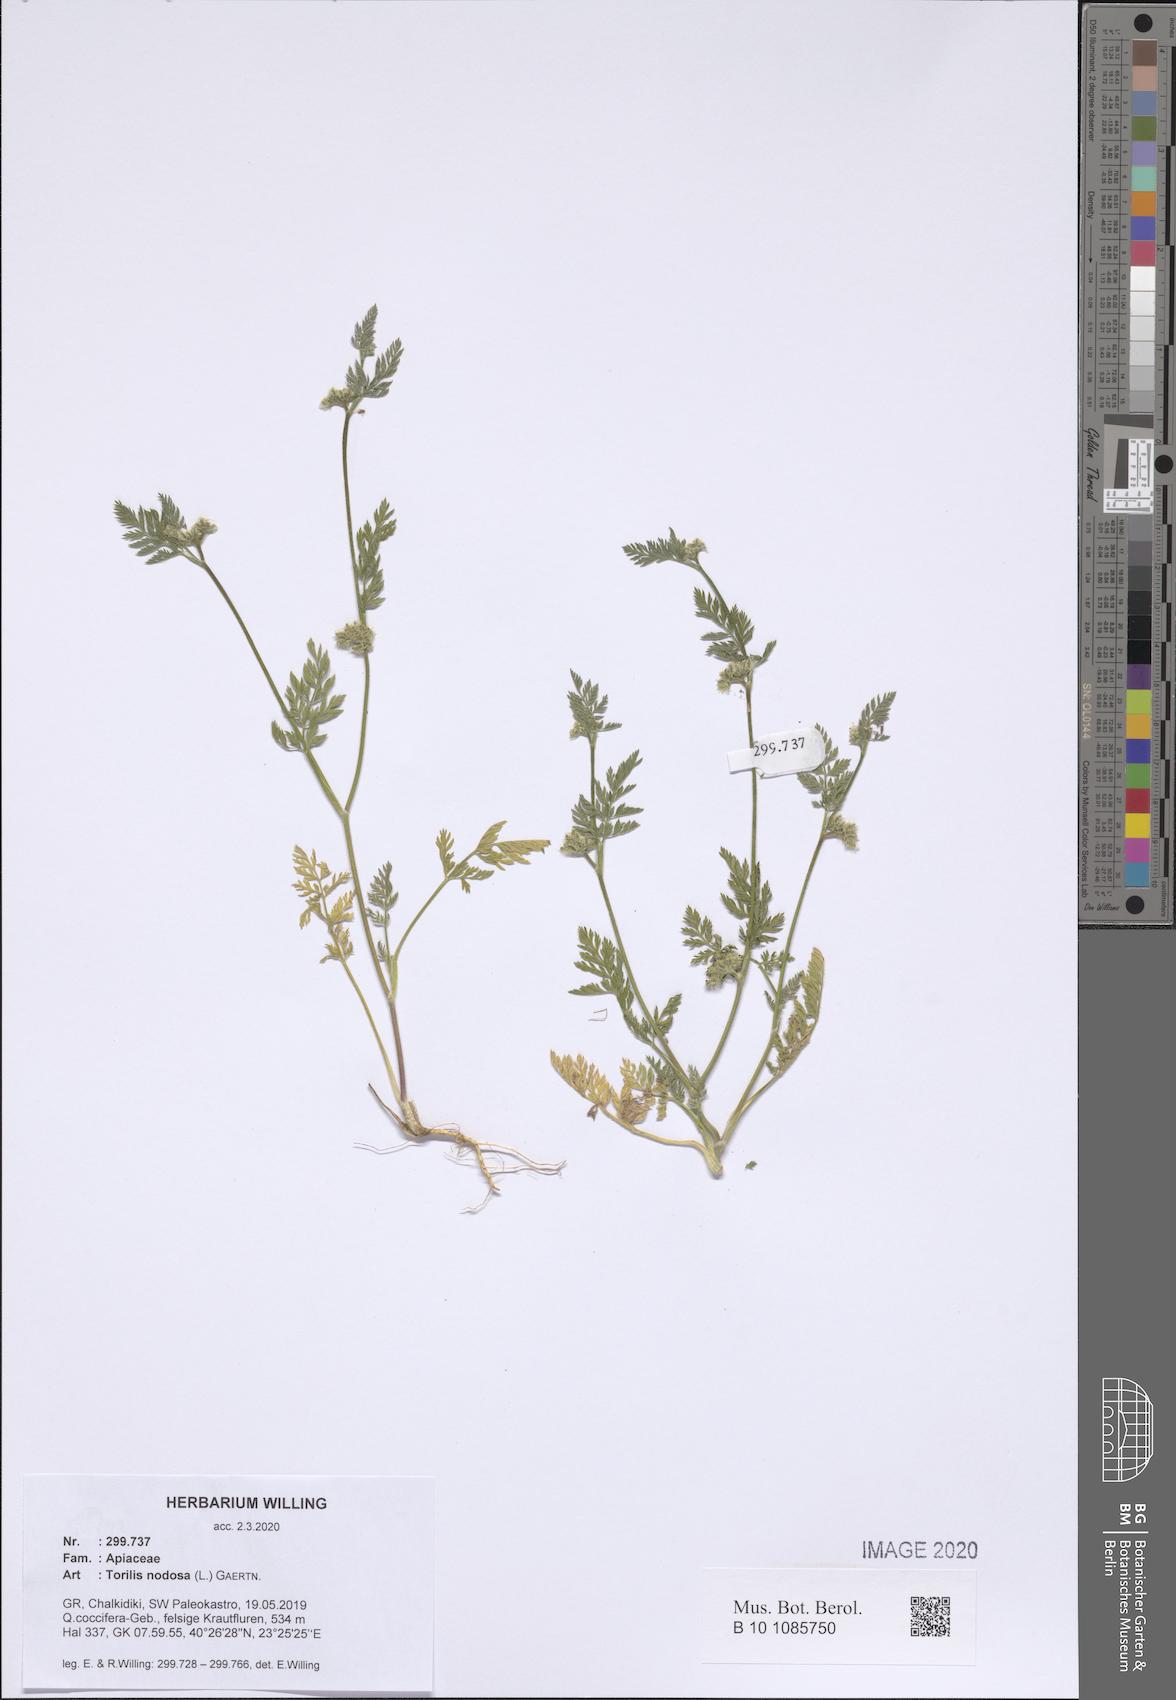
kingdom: Plantae
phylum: Tracheophyta
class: Magnoliopsida
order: Apiales
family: Apiaceae
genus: Torilis
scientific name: Torilis nodosa
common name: Knotted hedge-parsley
